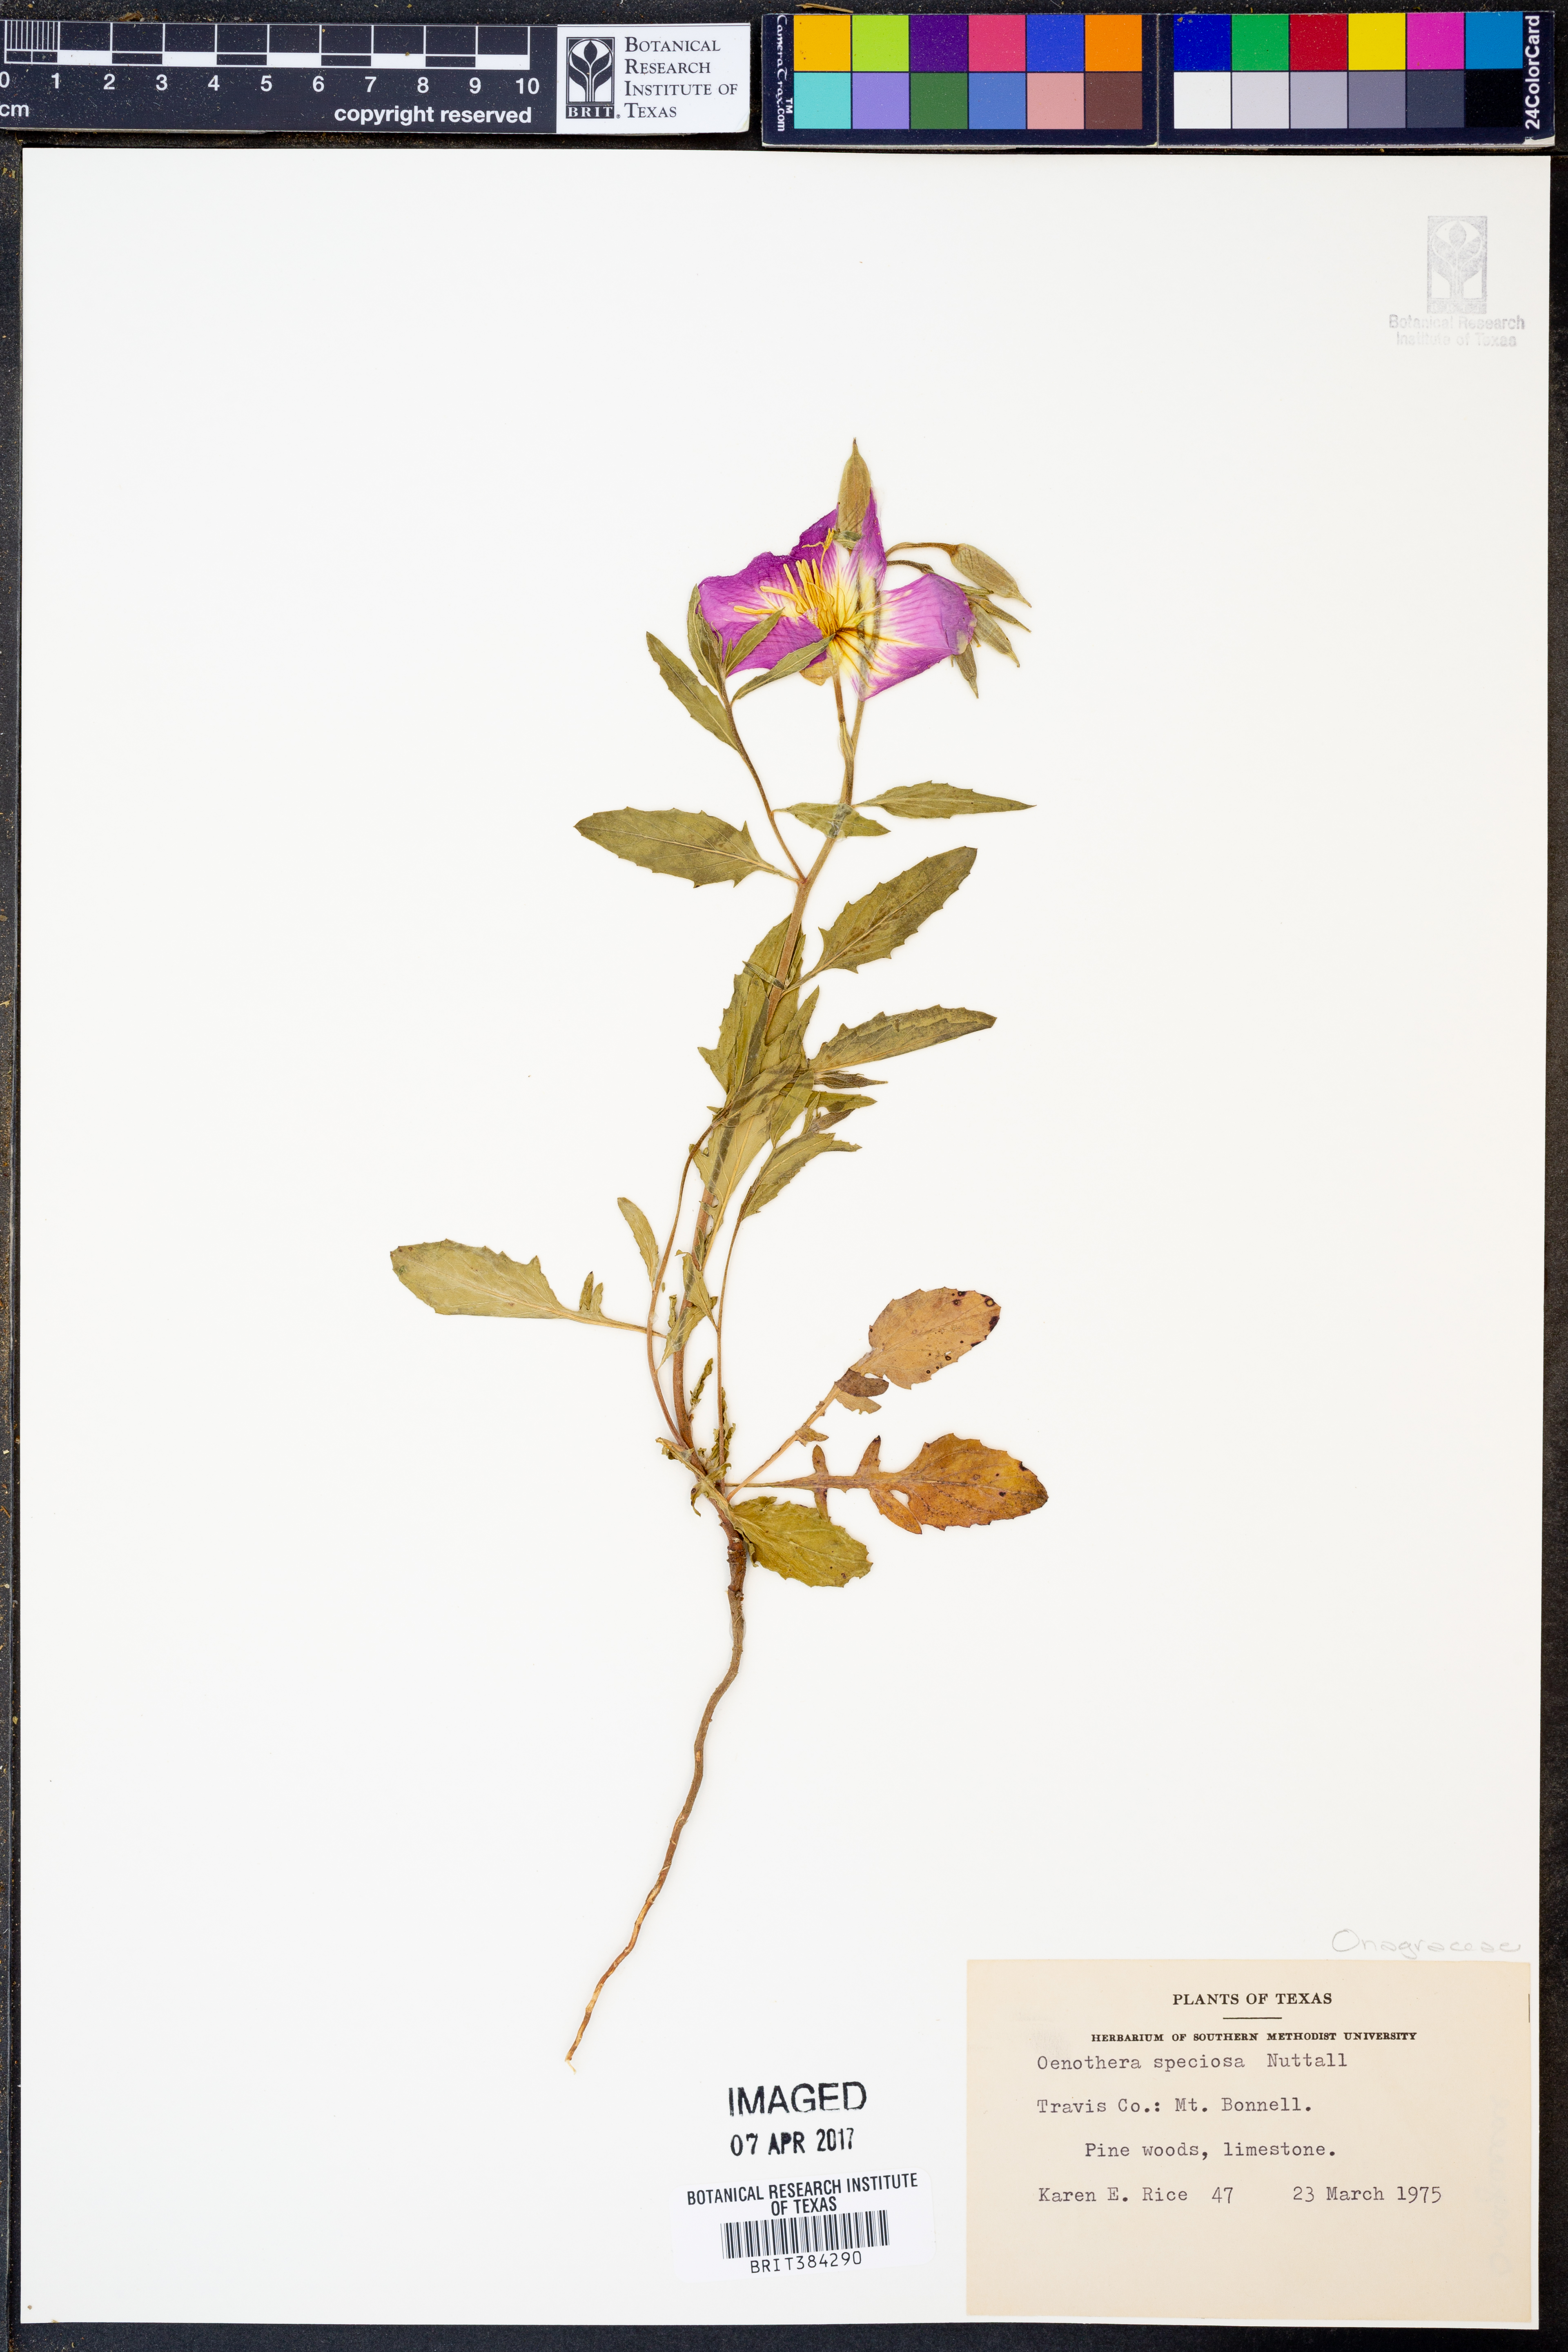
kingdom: Plantae
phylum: Tracheophyta
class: Magnoliopsida
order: Myrtales
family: Onagraceae
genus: Oenothera
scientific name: Oenothera speciosa
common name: White evening-primrose
